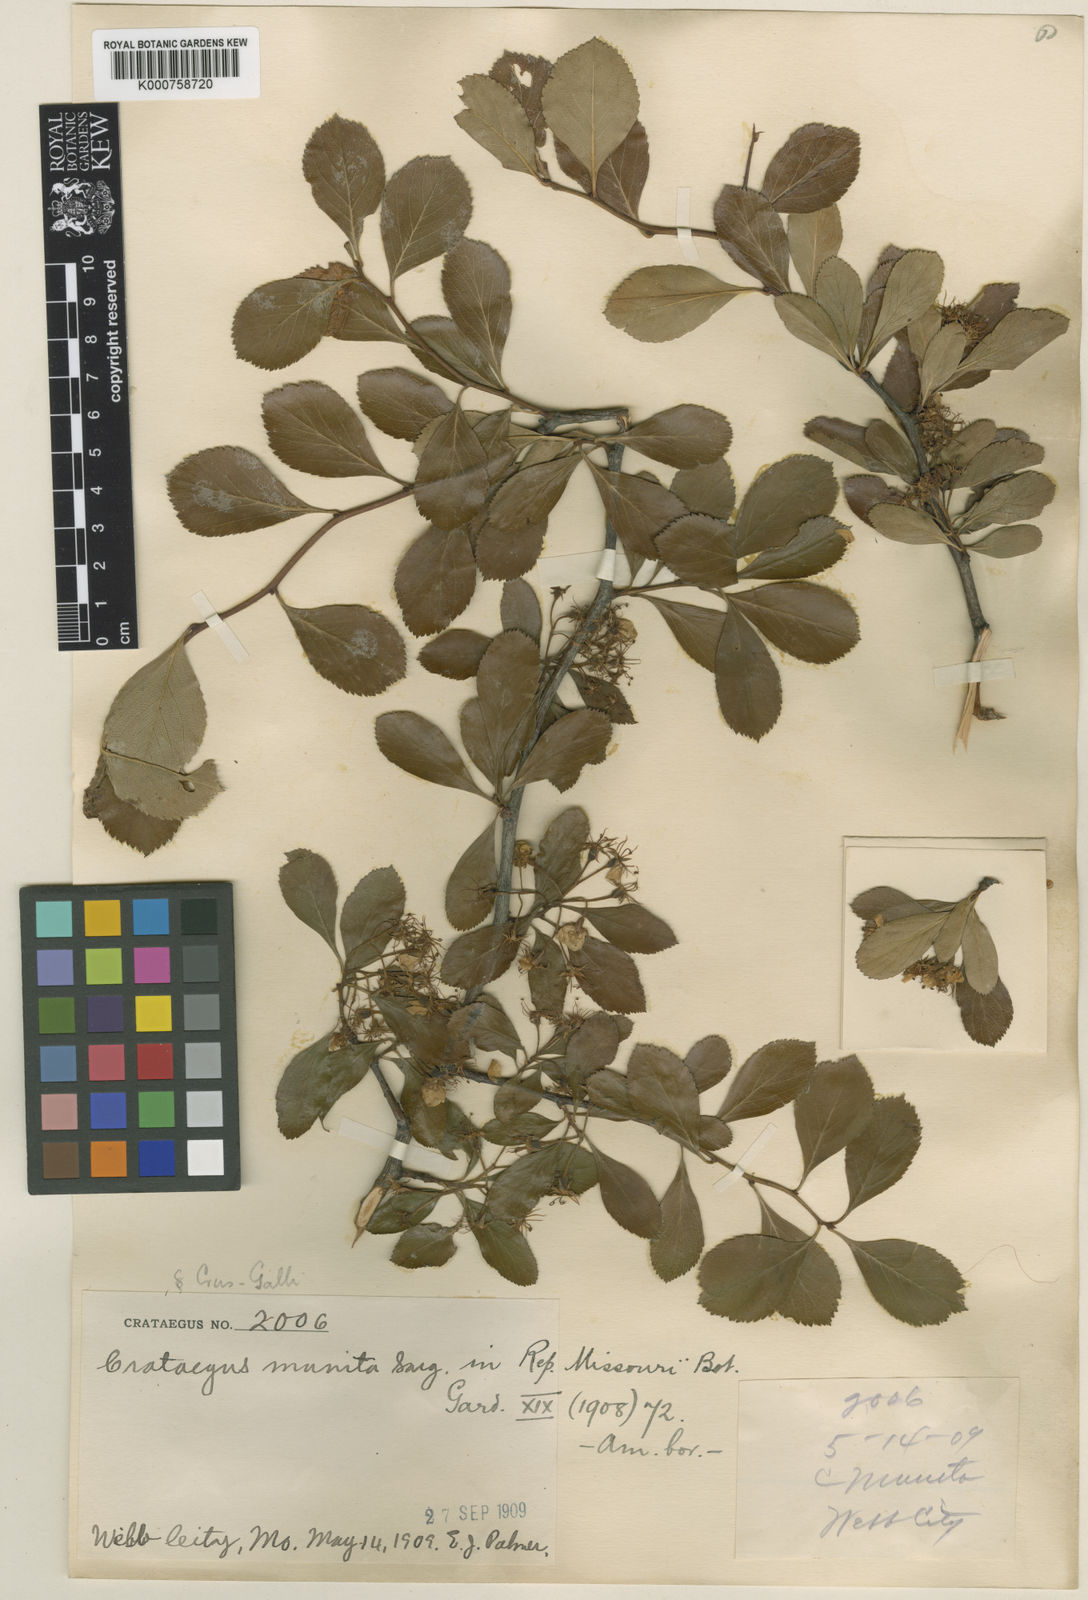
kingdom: Plantae
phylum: Tracheophyta
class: Magnoliopsida
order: Rosales
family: Rosaceae
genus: Crataegus
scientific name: Crataegus
